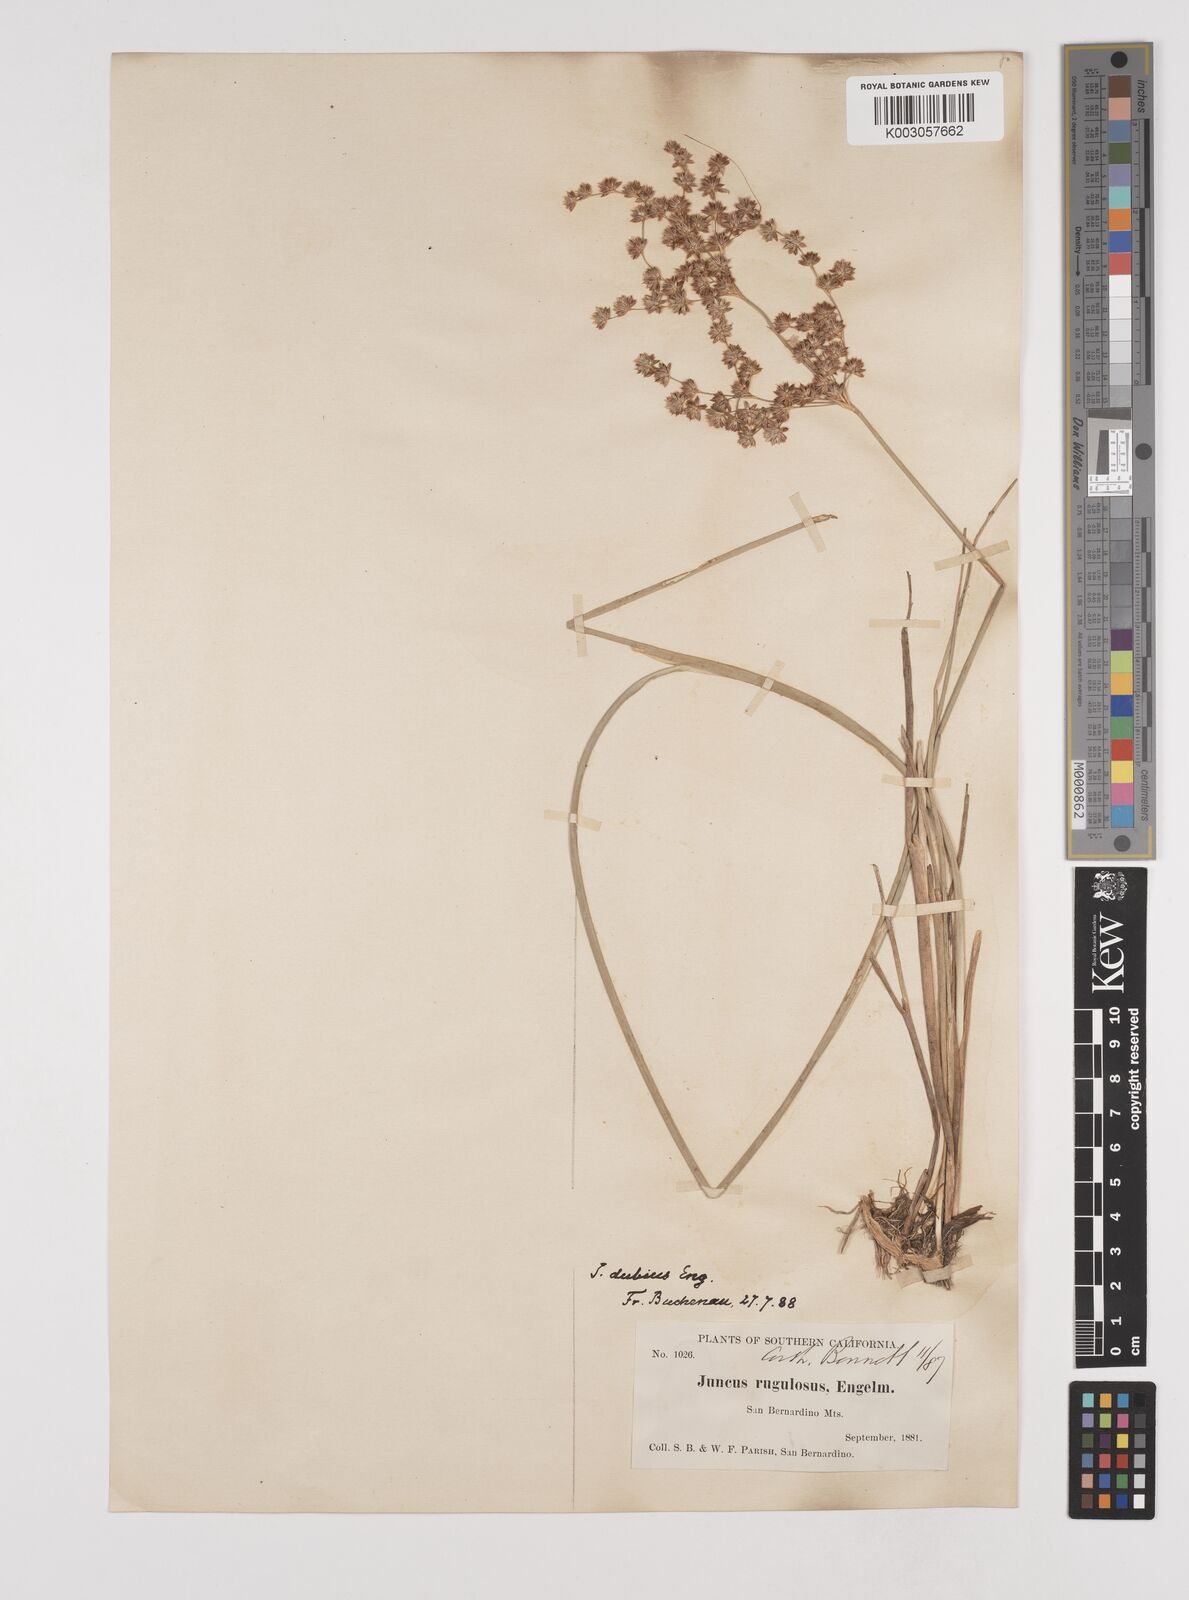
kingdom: Plantae
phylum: Tracheophyta
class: Liliopsida
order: Poales
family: Juncaceae
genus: Juncus
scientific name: Juncus dubius
